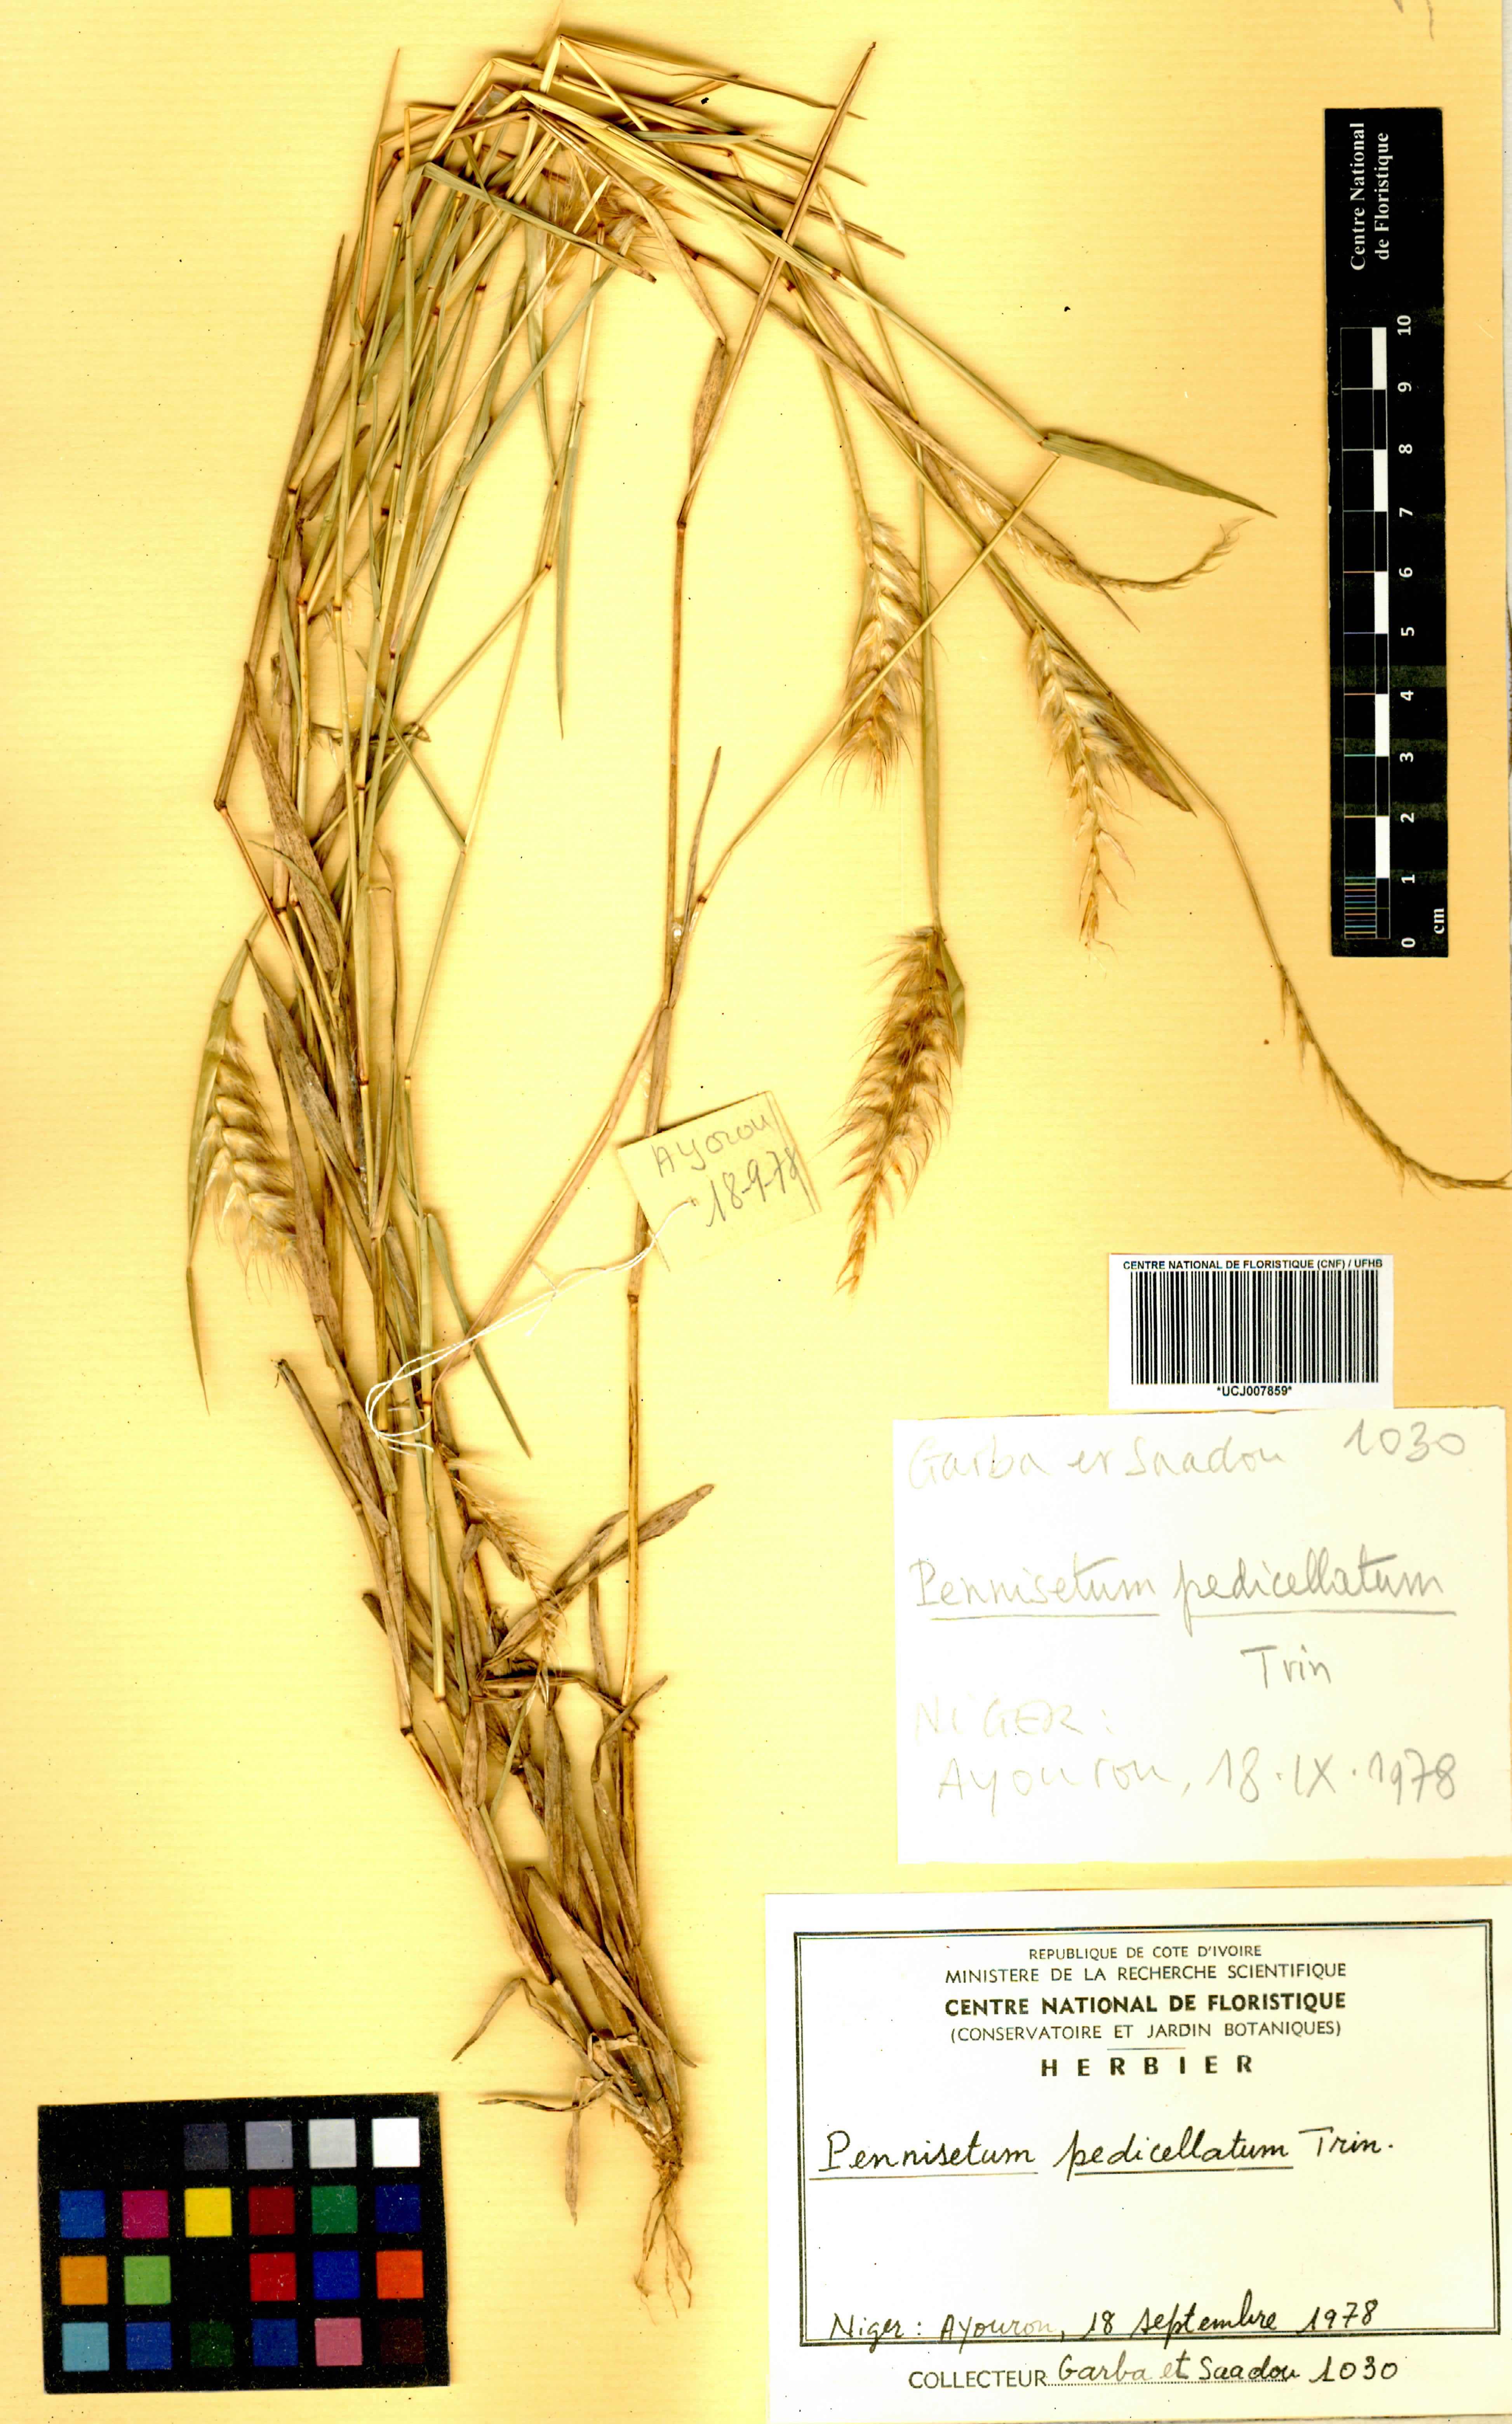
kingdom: Plantae
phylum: Tracheophyta
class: Liliopsida
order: Poales
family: Poaceae
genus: Cenchrus
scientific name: Cenchrus pedicellatus
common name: Hairy fountain grass
